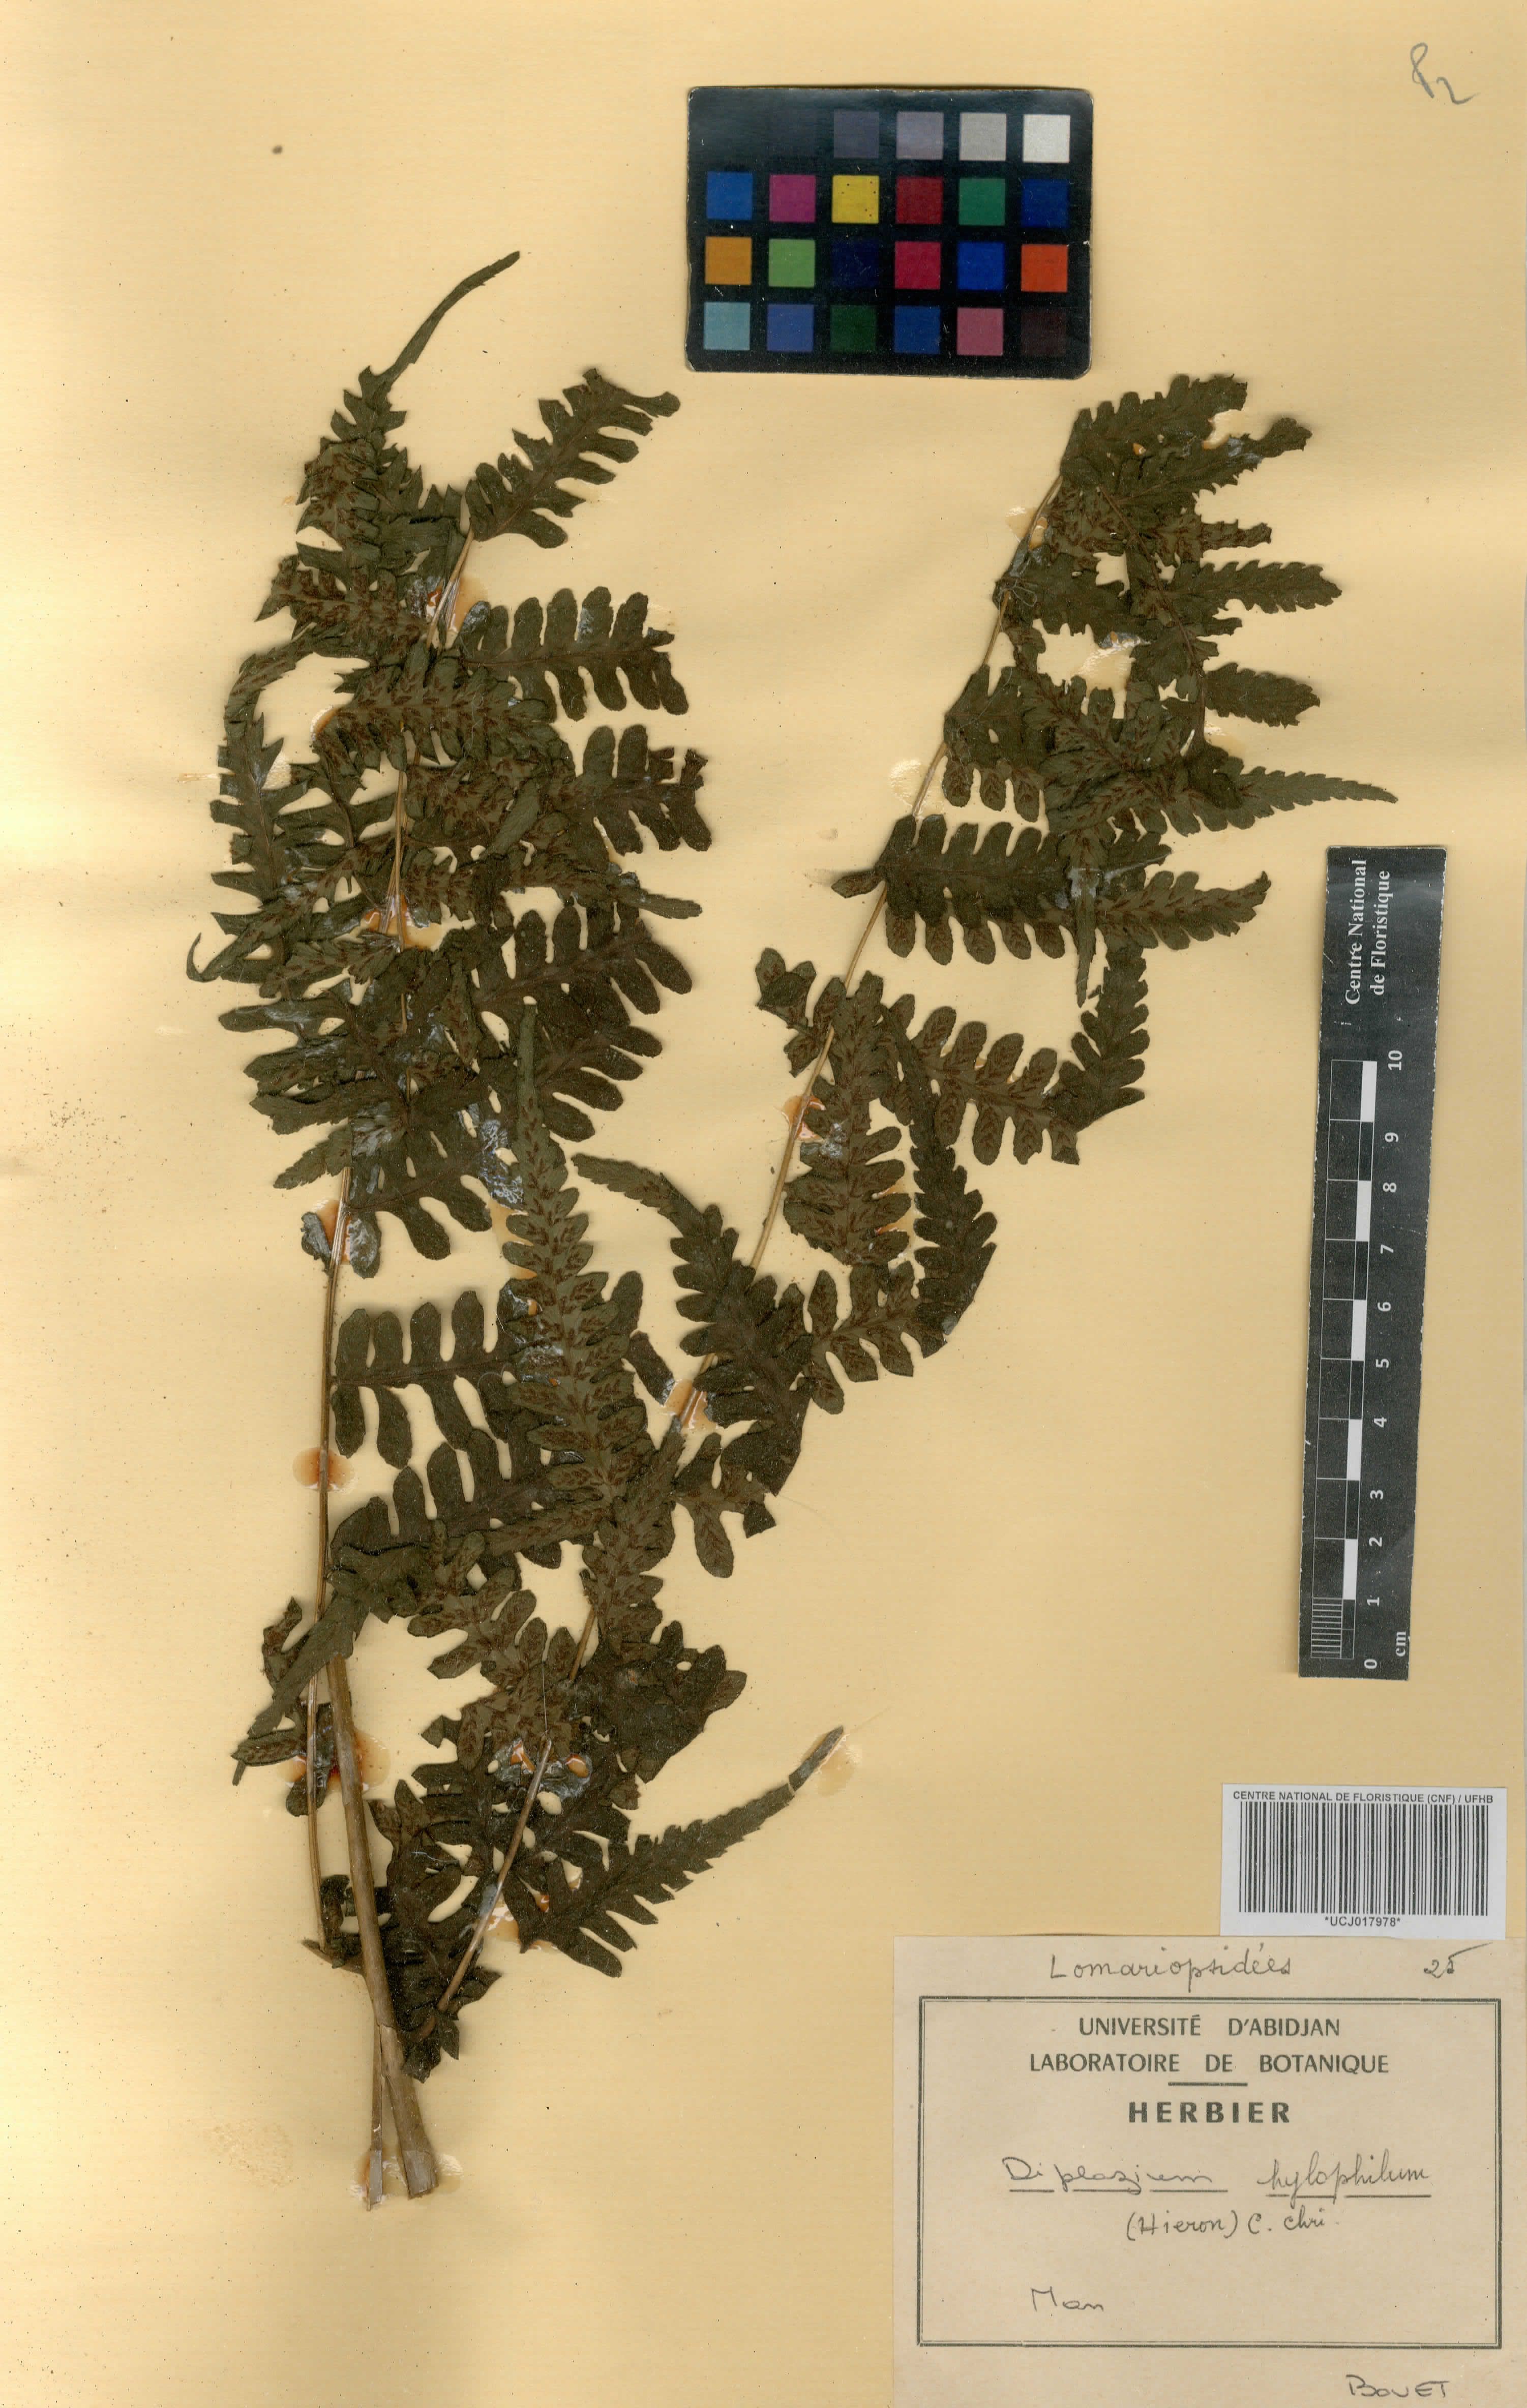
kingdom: Plantae
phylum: Tracheophyta
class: Polypodiopsida
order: Polypodiales
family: Athyriaceae
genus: Diplazium
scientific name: Diplazium nemorale
